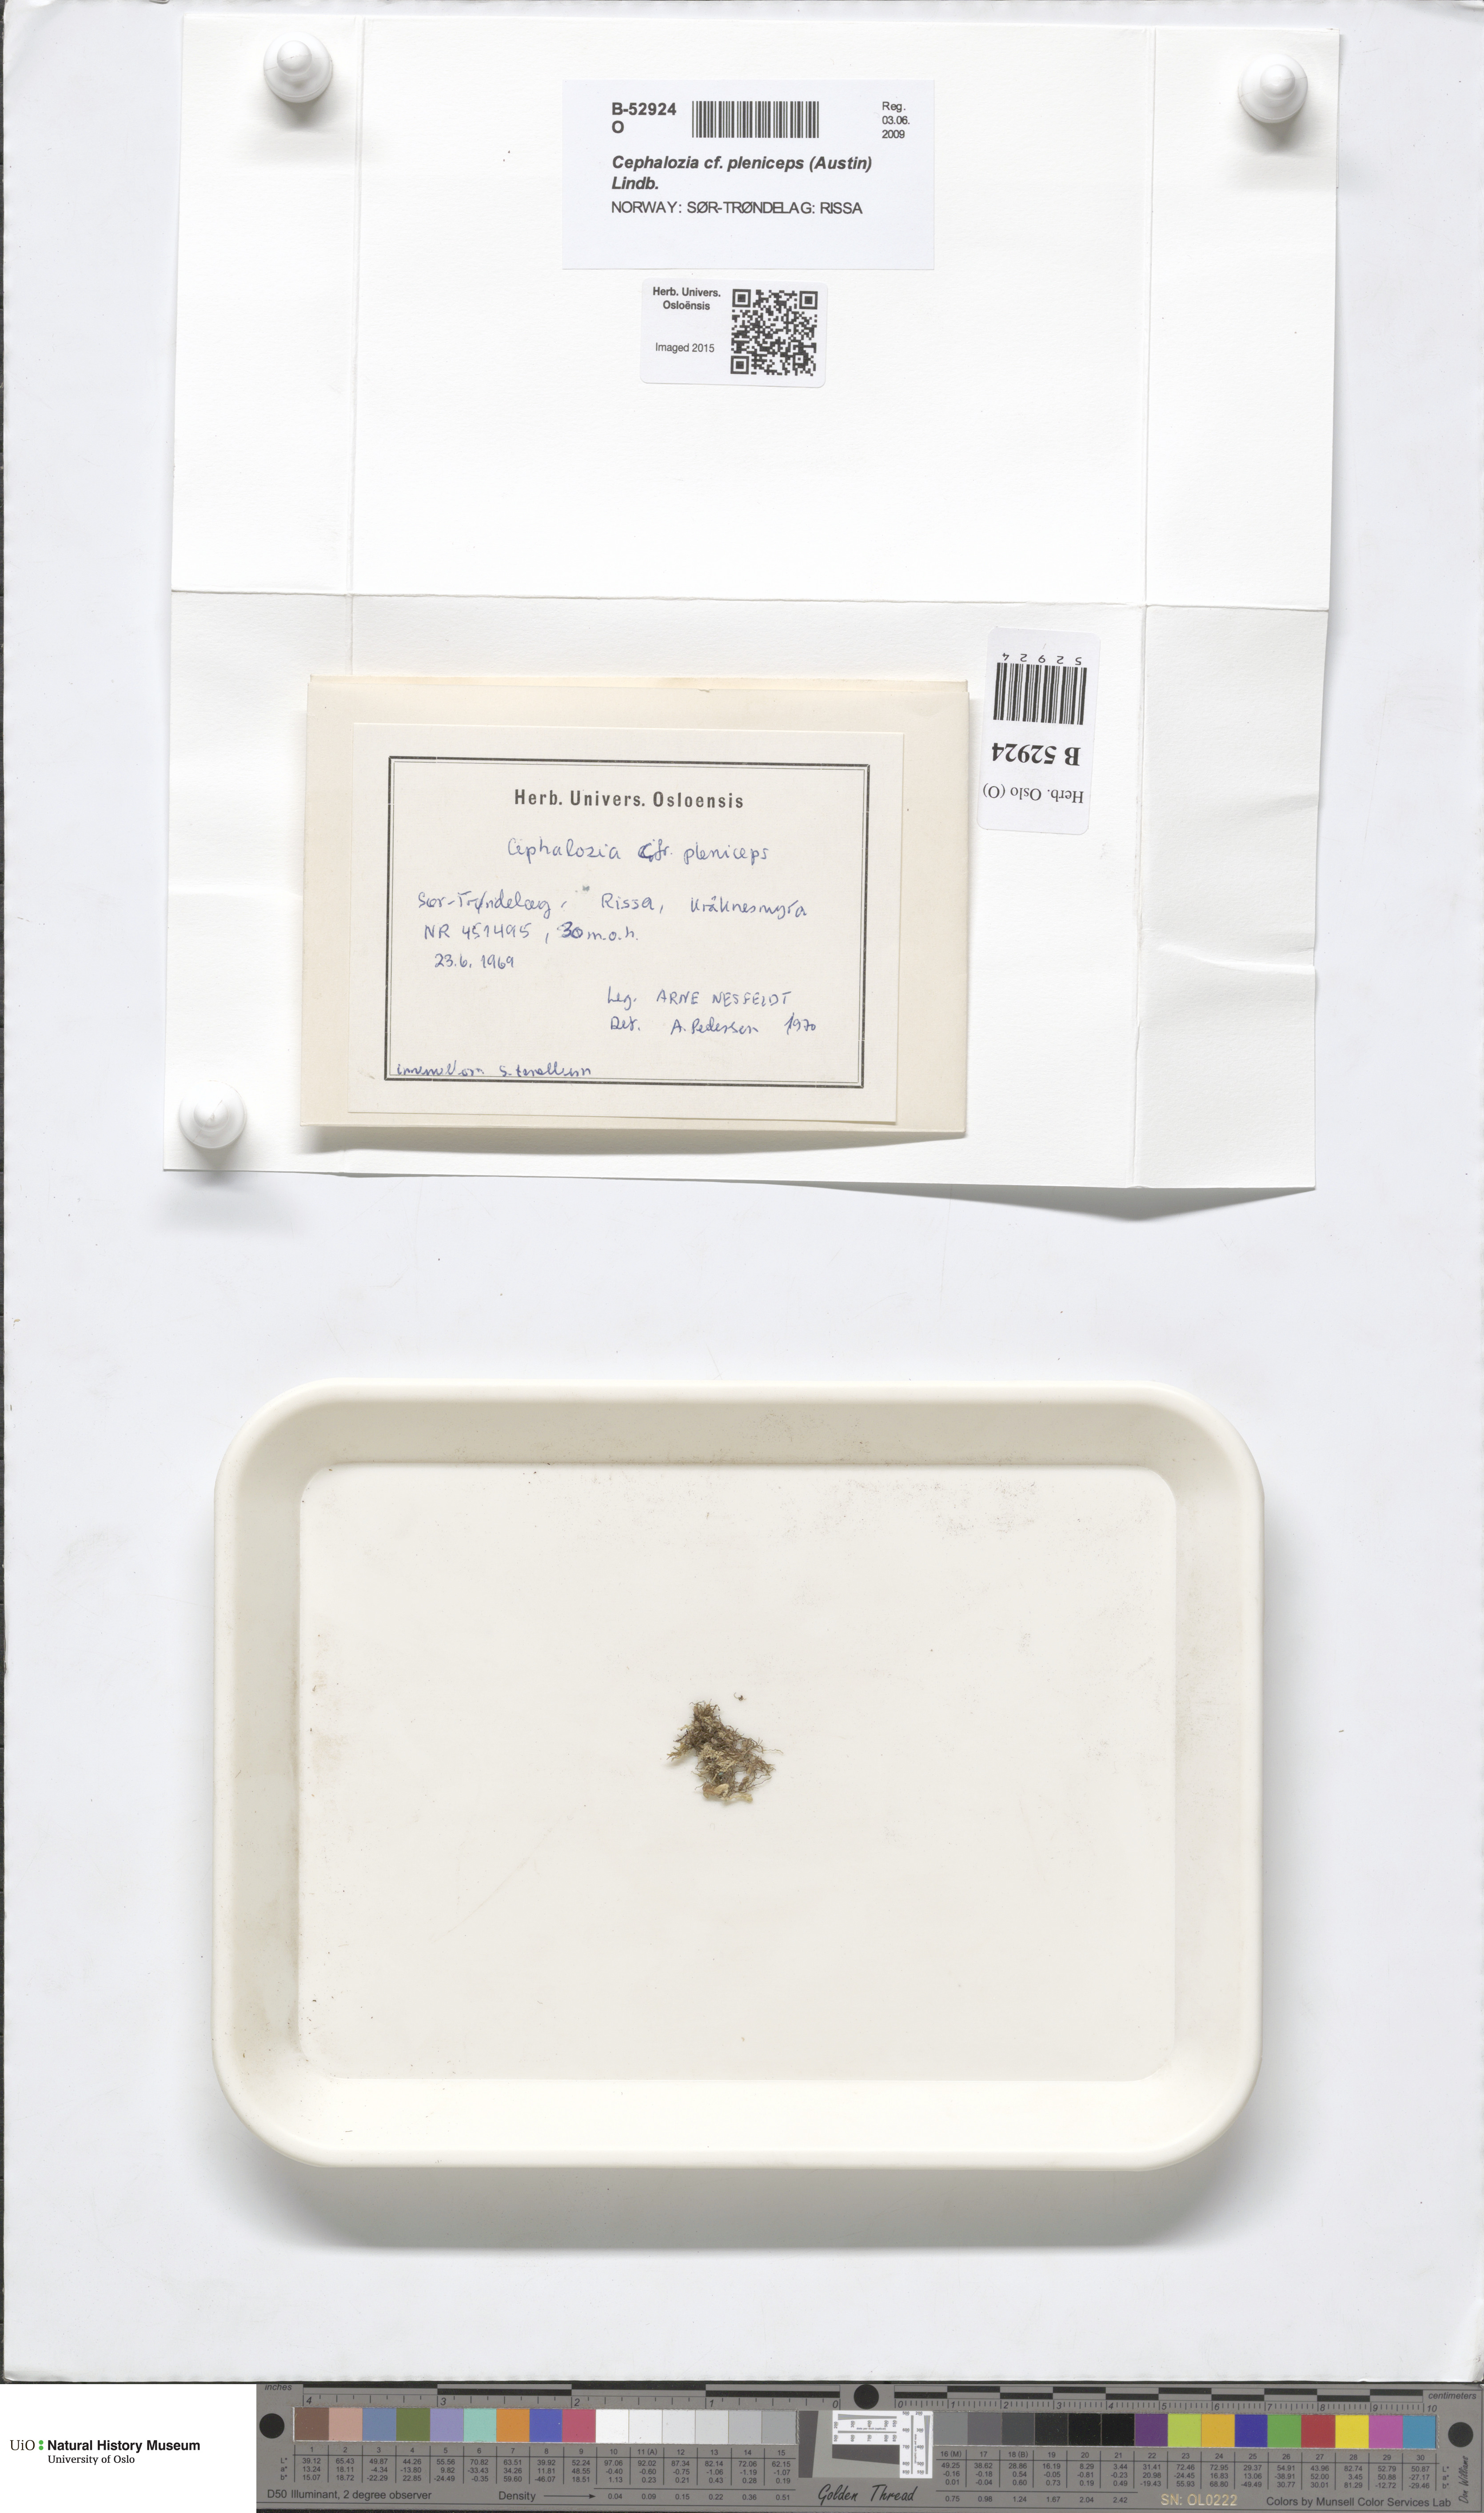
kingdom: Plantae
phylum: Marchantiophyta
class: Jungermanniopsida
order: Jungermanniales
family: Cephaloziaceae
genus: Fuscocephaloziopsis
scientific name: Fuscocephaloziopsis pleniceps
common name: Blunt pincerwort
